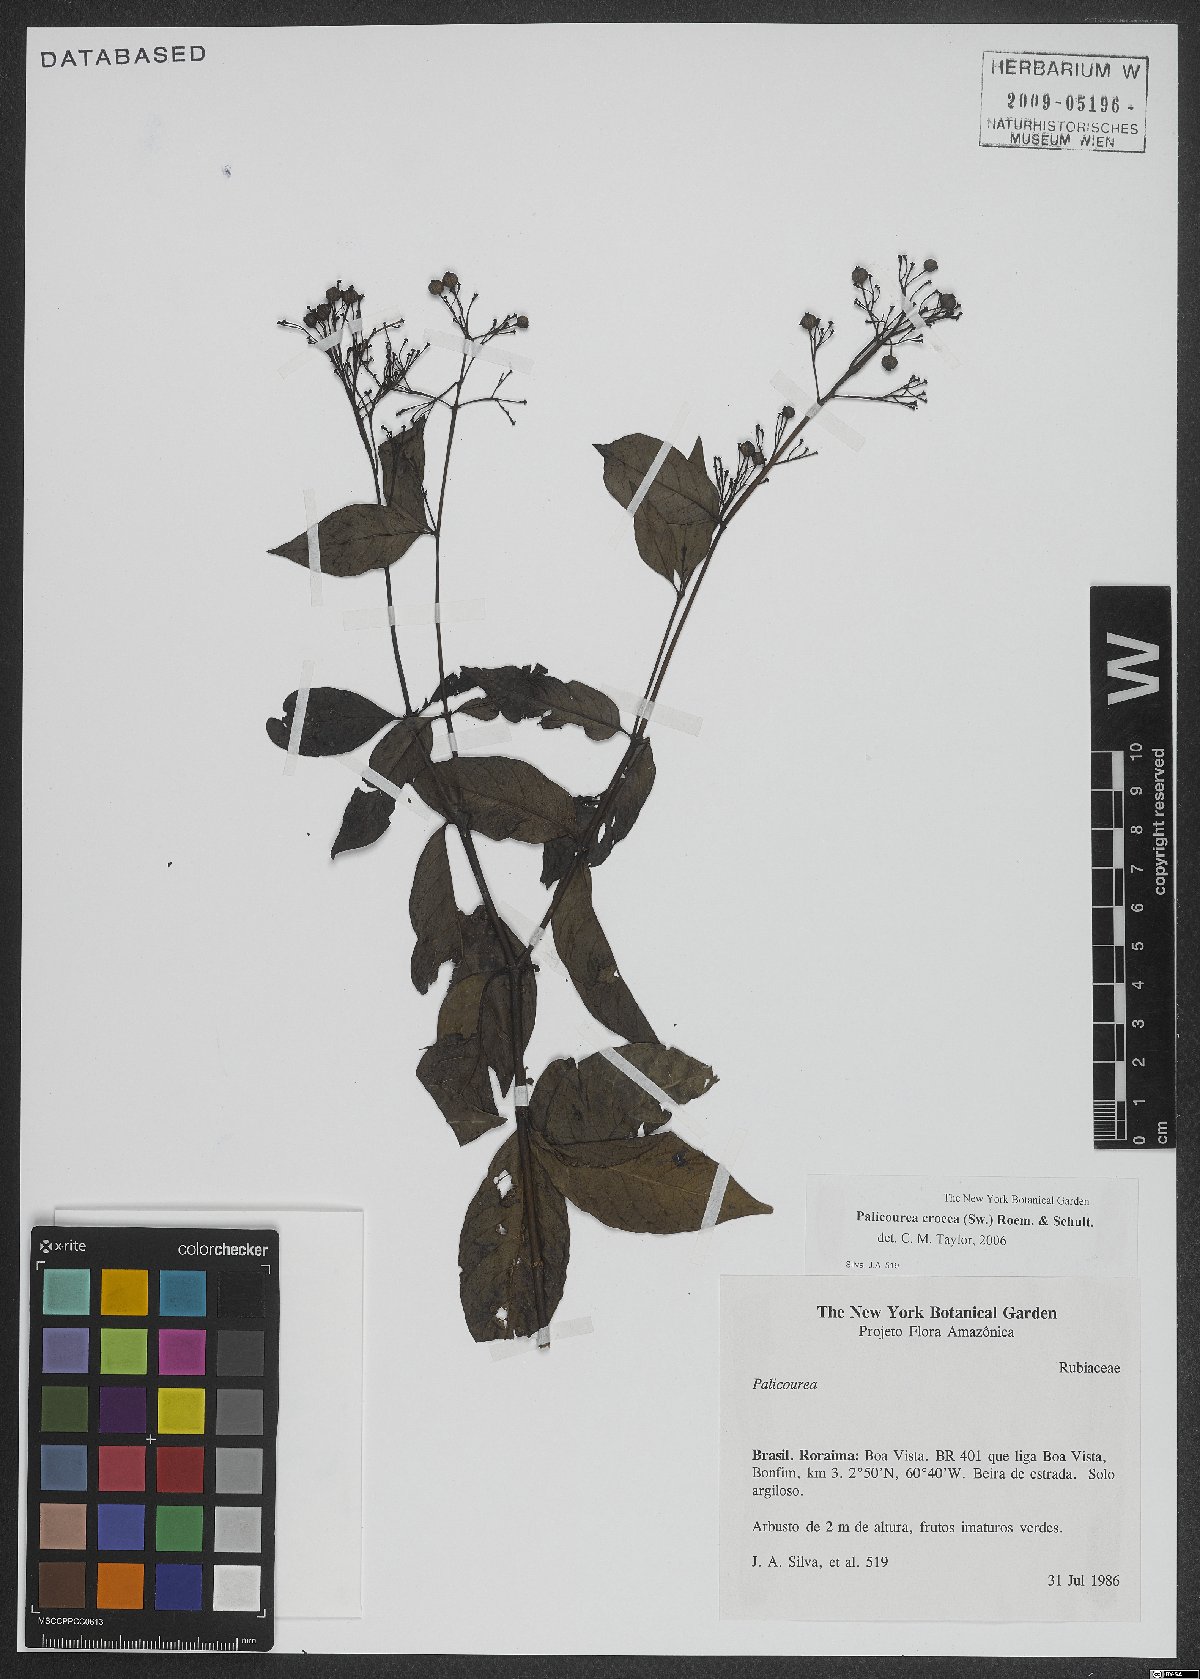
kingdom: Plantae
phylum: Tracheophyta
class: Magnoliopsida
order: Gentianales
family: Rubiaceae
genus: Palicourea
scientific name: Palicourea crocea
